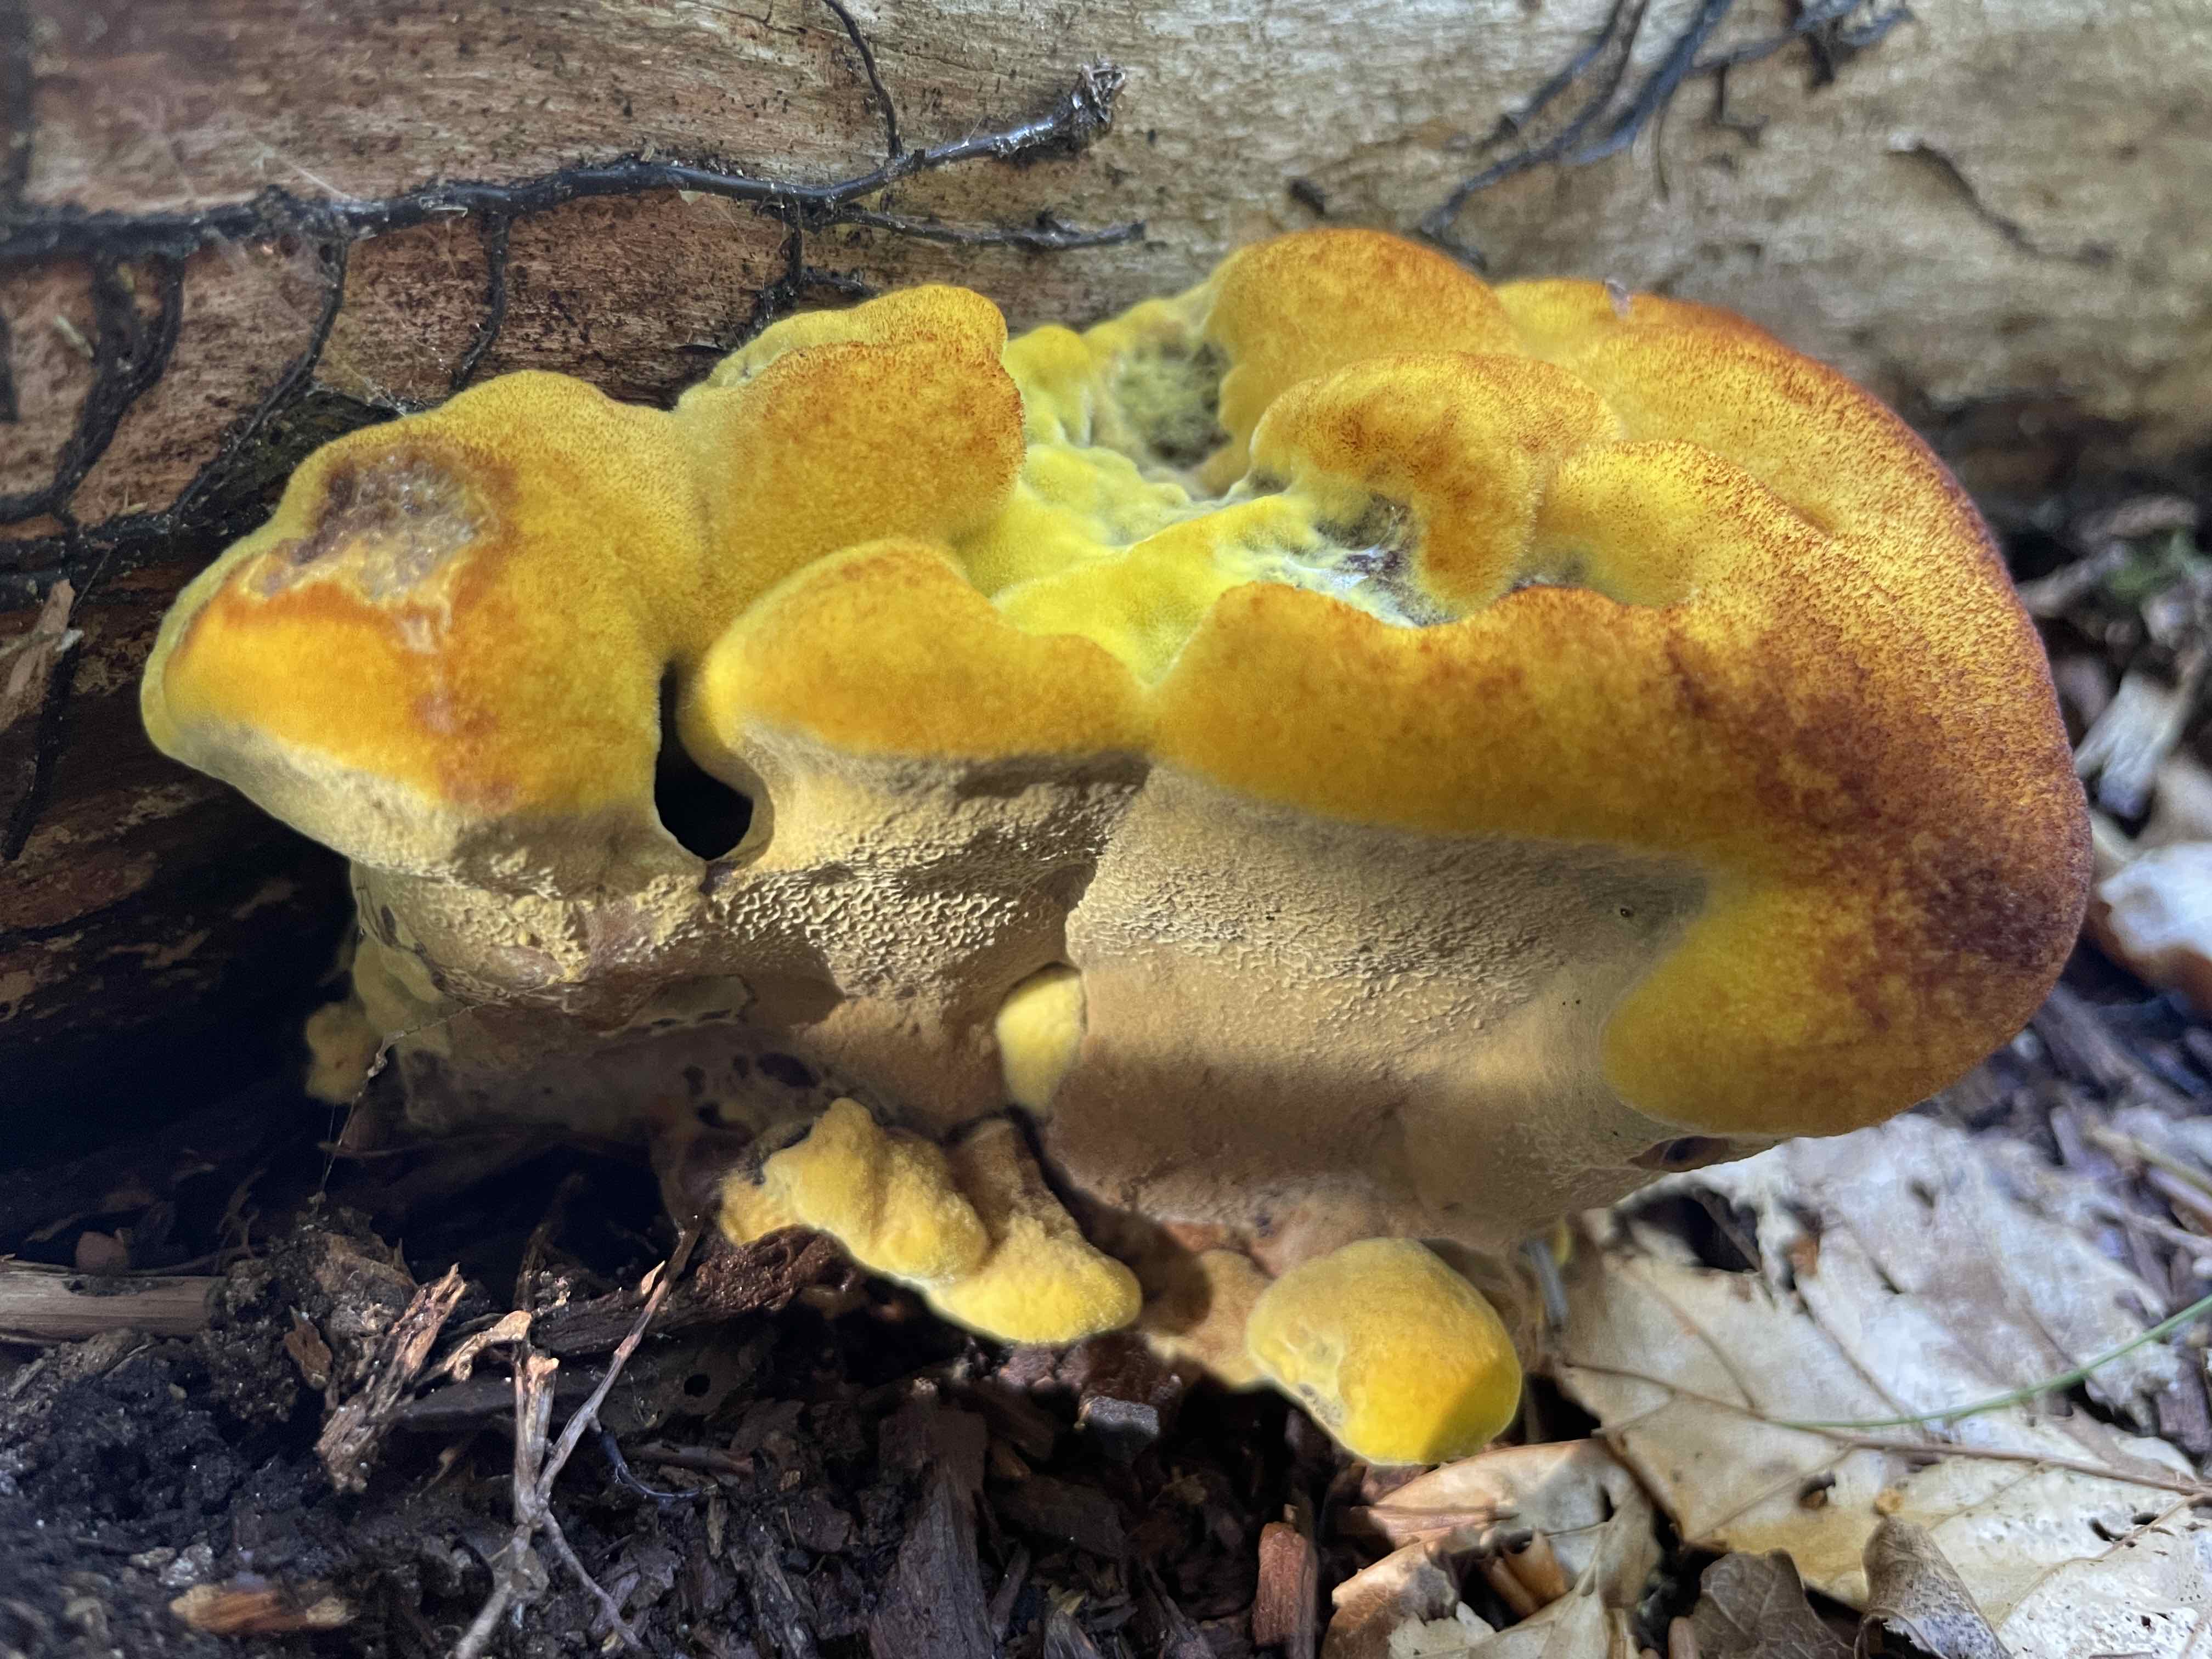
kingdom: Fungi
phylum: Basidiomycota
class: Agaricomycetes
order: Polyporales
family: Laetiporaceae
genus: Phaeolus
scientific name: Phaeolus schweinitzii
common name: brunporesvamp
